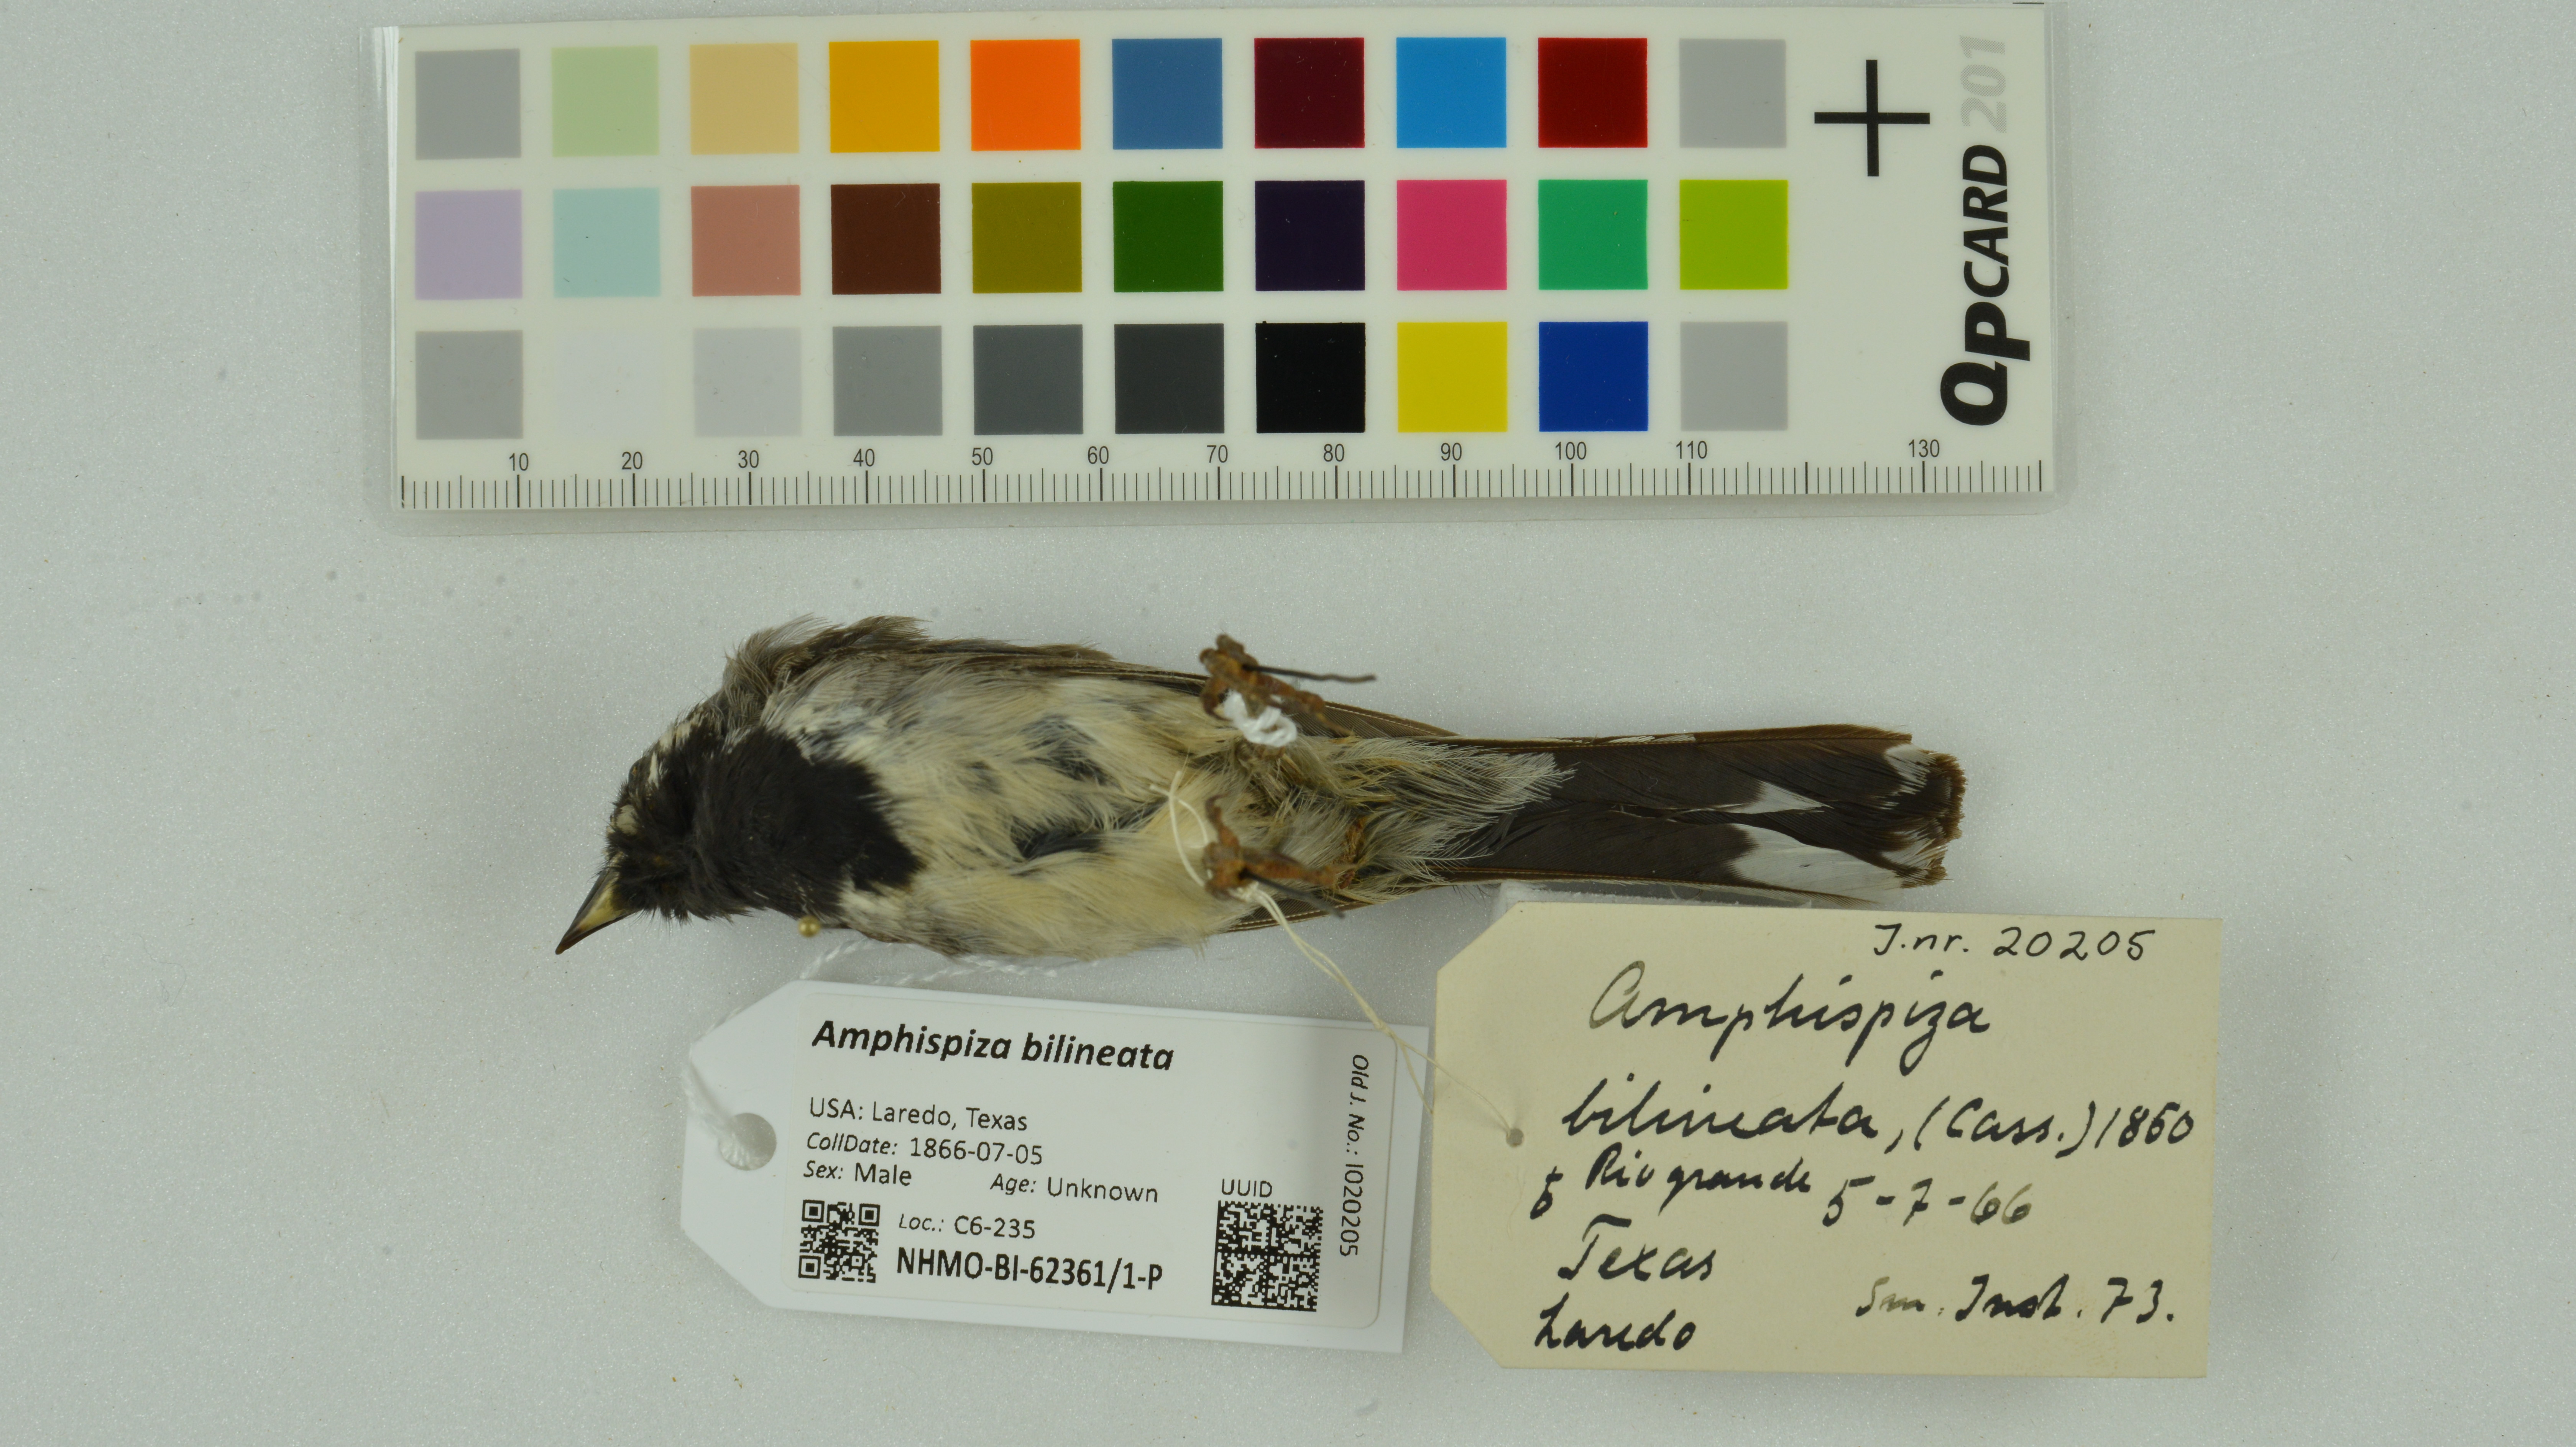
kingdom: Animalia
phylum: Chordata
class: Aves
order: Passeriformes
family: Passerellidae
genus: Amphispiza
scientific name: Amphispiza bilineata
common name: Black-throated sparrow
